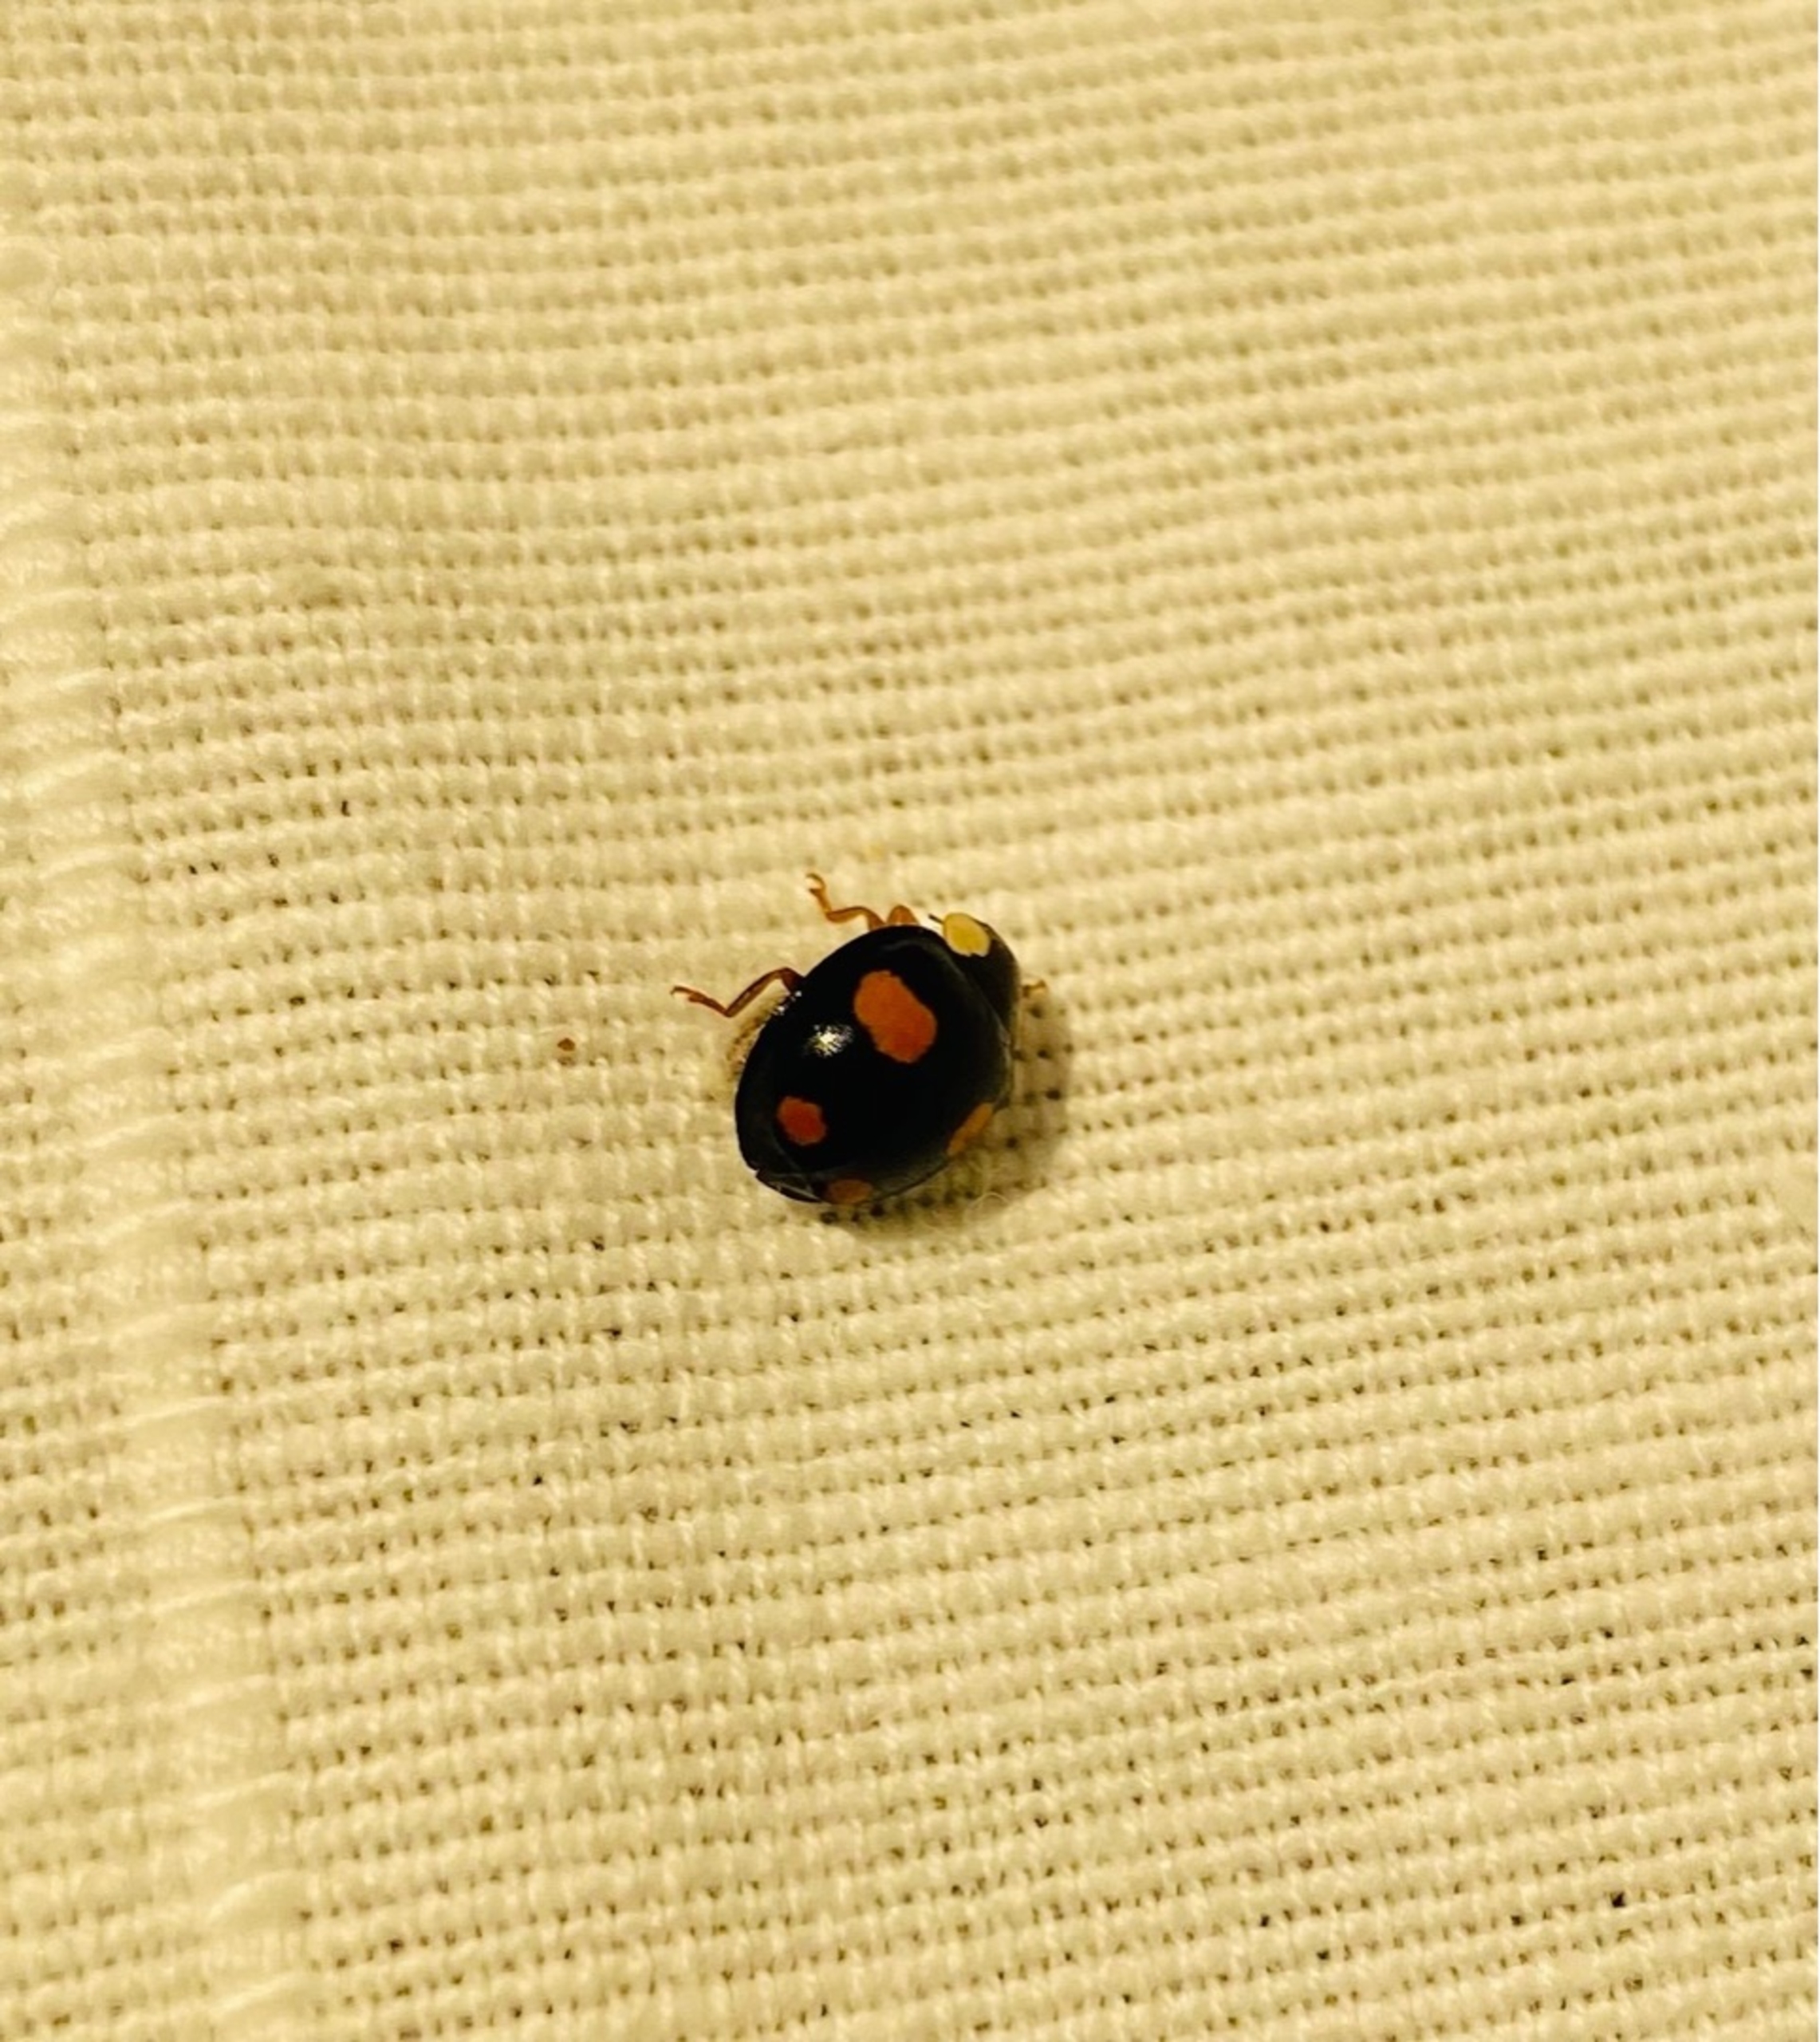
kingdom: Animalia
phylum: Arthropoda
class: Insecta
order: Coleoptera
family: Coccinellidae
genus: Harmonia
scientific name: Harmonia axyridis
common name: Harlekinmariehøne
